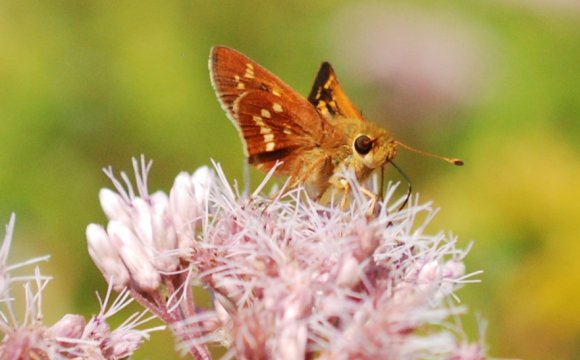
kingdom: Animalia
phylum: Arthropoda
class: Insecta
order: Lepidoptera
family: Hesperiidae
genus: Hesperia
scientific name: Hesperia leonardus
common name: Leonard's Skipper
